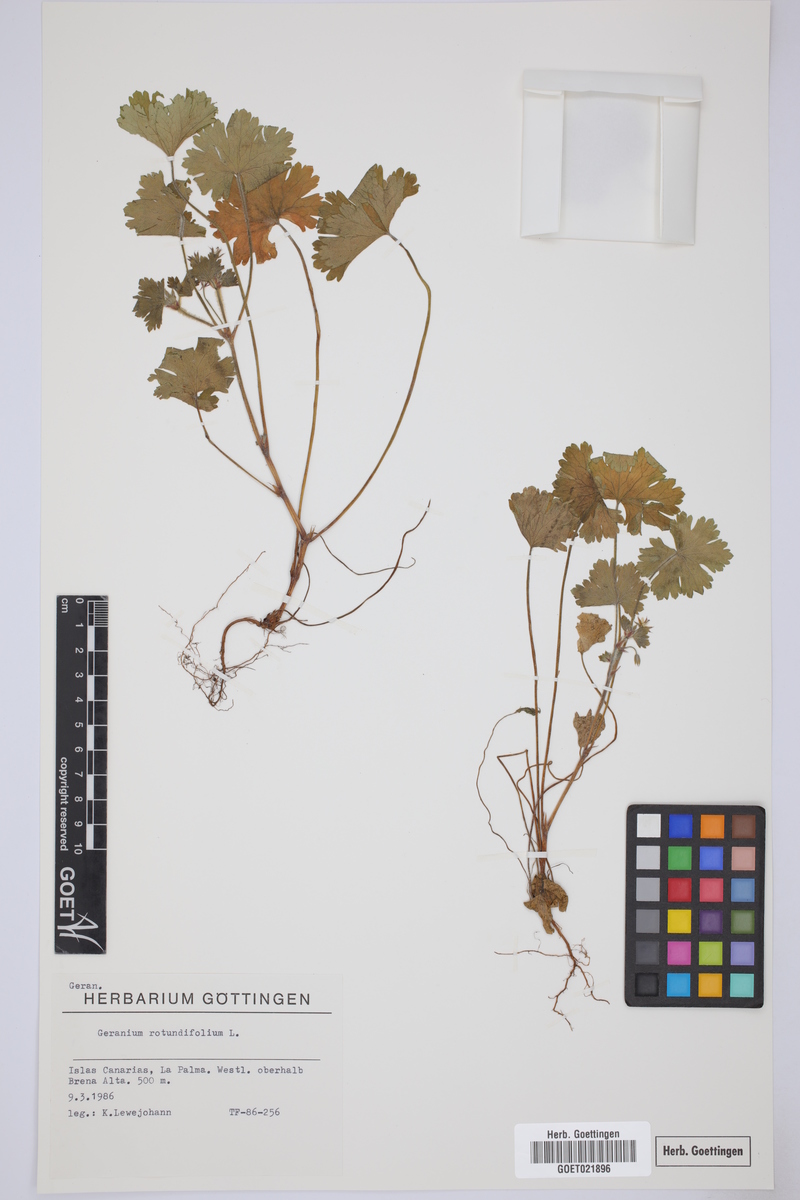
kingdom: Plantae
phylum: Tracheophyta
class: Magnoliopsida
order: Geraniales
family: Geraniaceae
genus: Geranium
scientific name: Geranium rotundifolium
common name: Round-leaved crane's-bill
